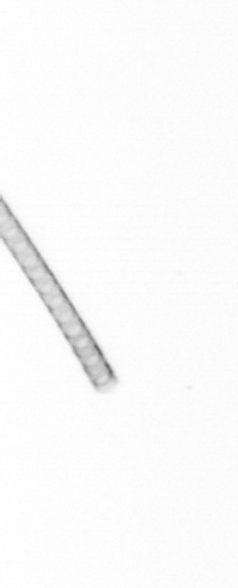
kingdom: Chromista
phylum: Ochrophyta
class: Bacillariophyceae
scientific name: Bacillariophyceae
